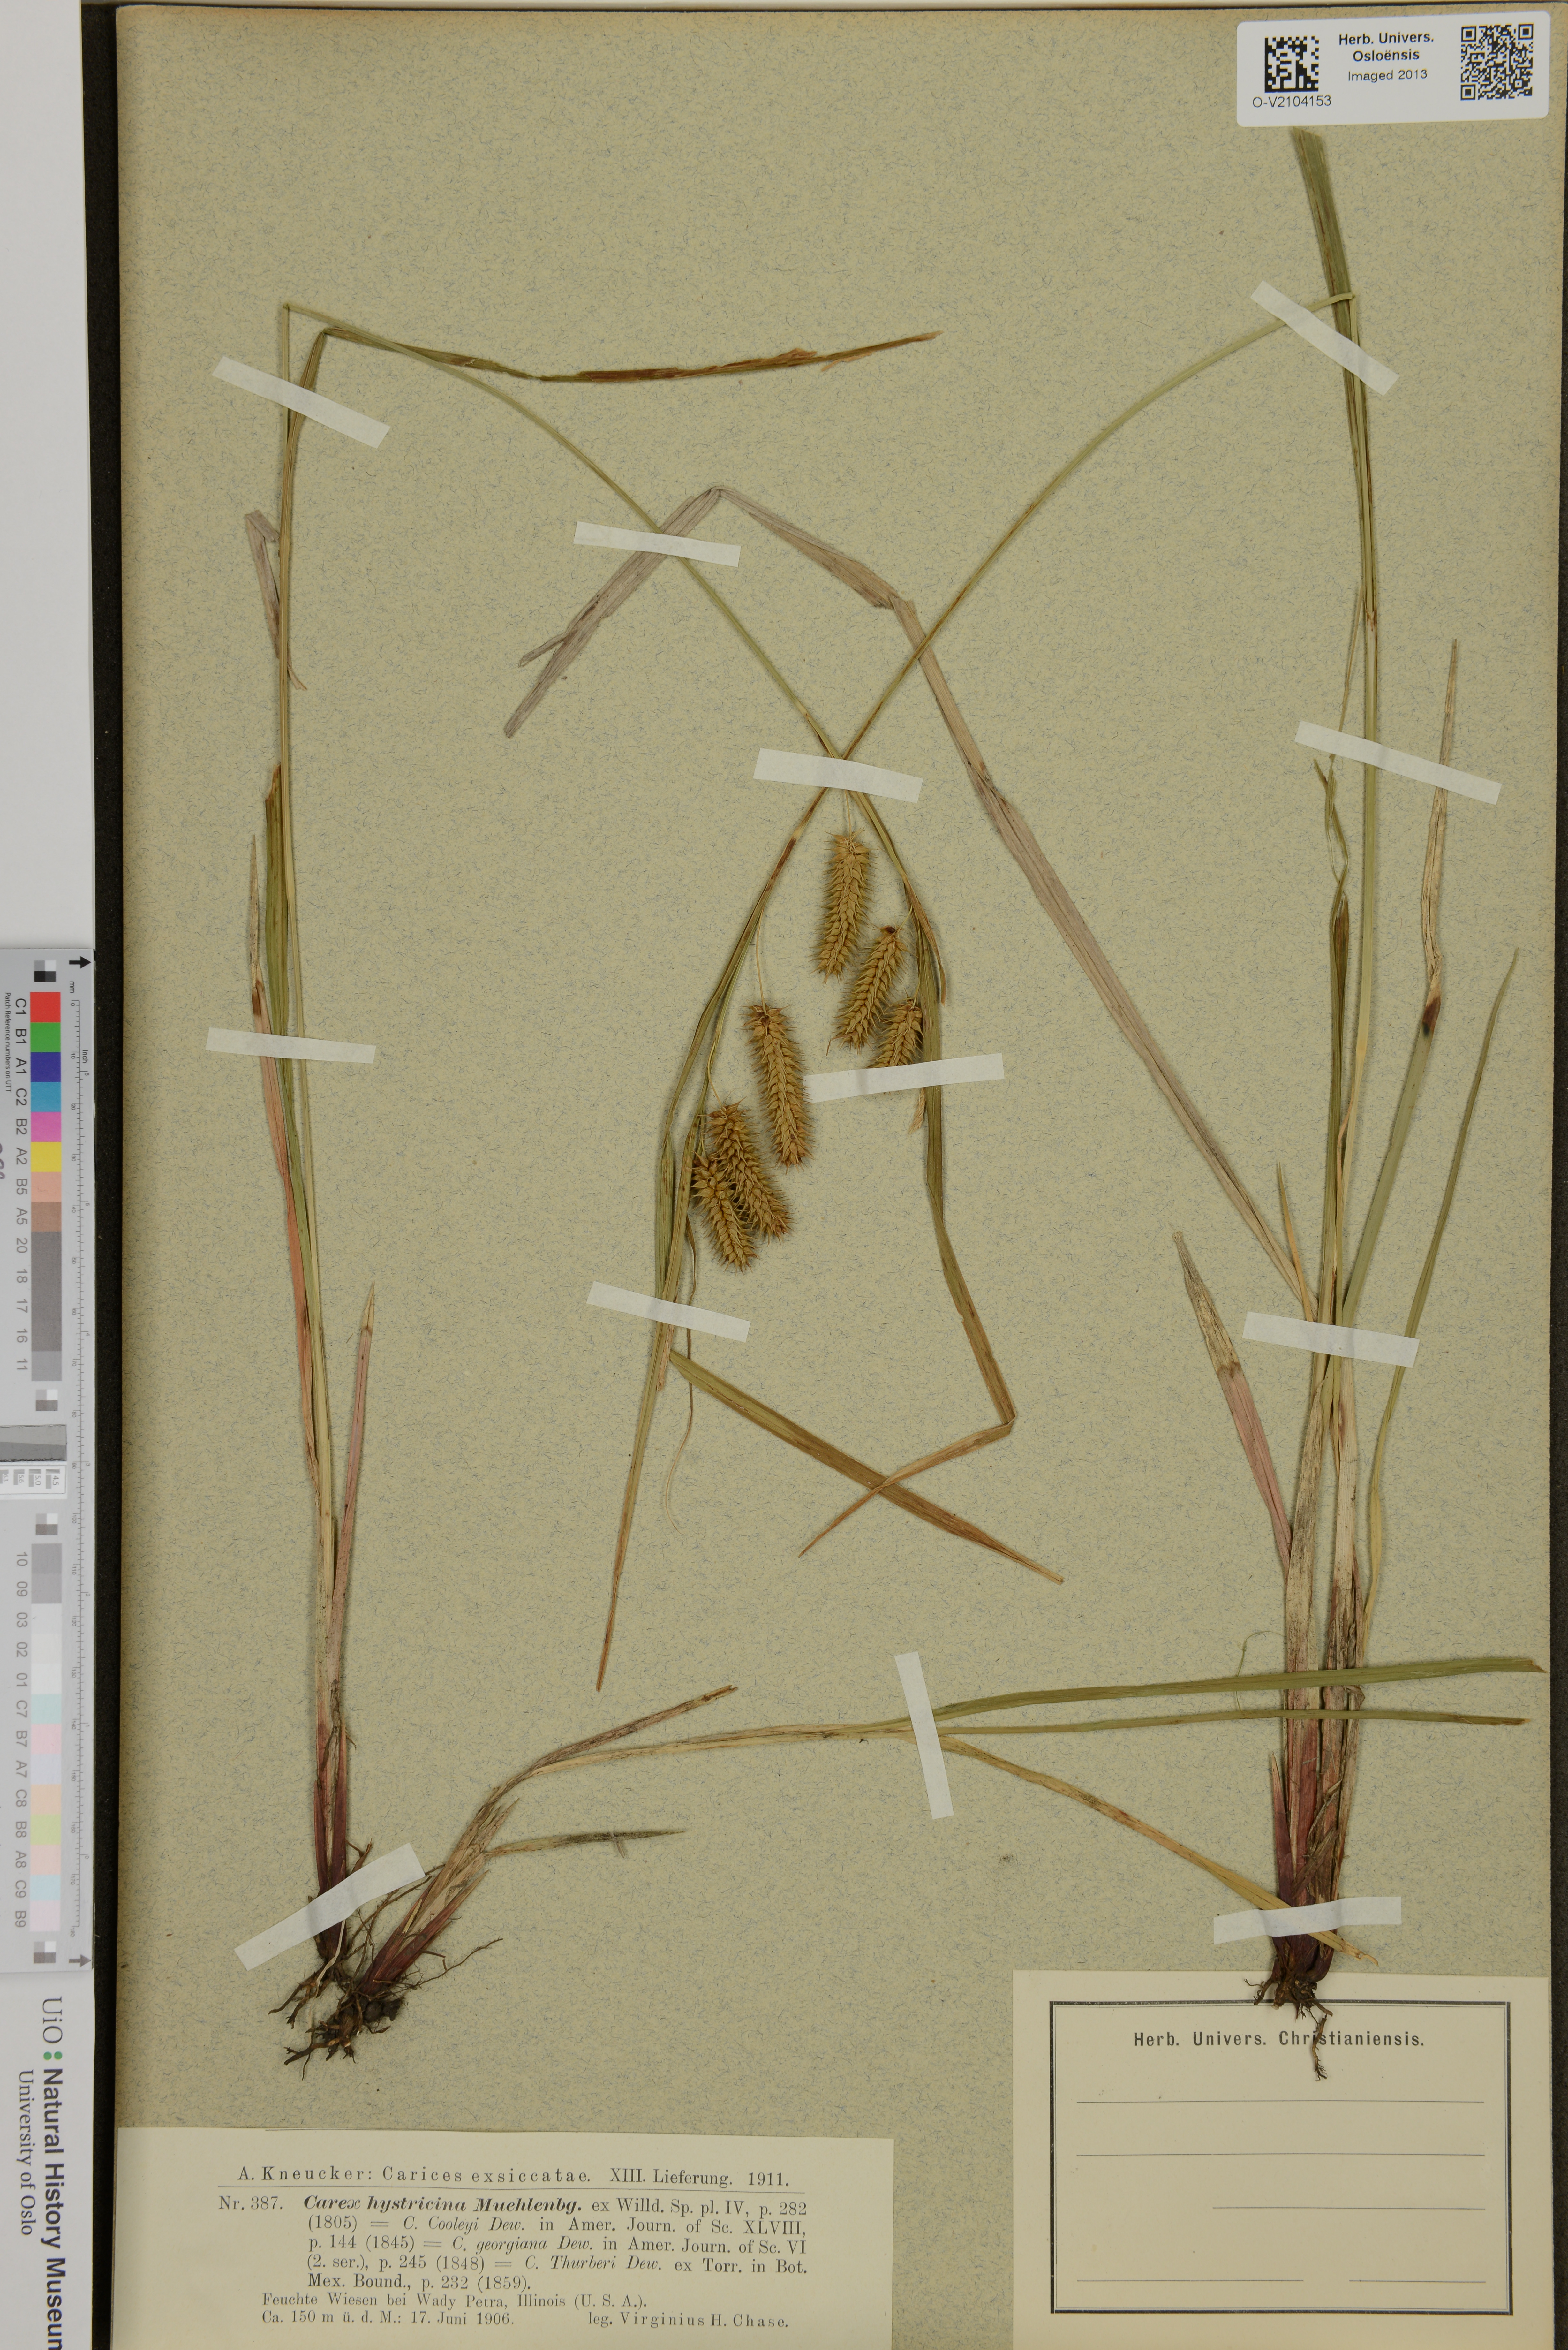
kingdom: Plantae
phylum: Tracheophyta
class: Liliopsida
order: Poales
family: Cyperaceae
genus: Carex
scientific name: Carex hystericina
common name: Bottlebrush sedge
